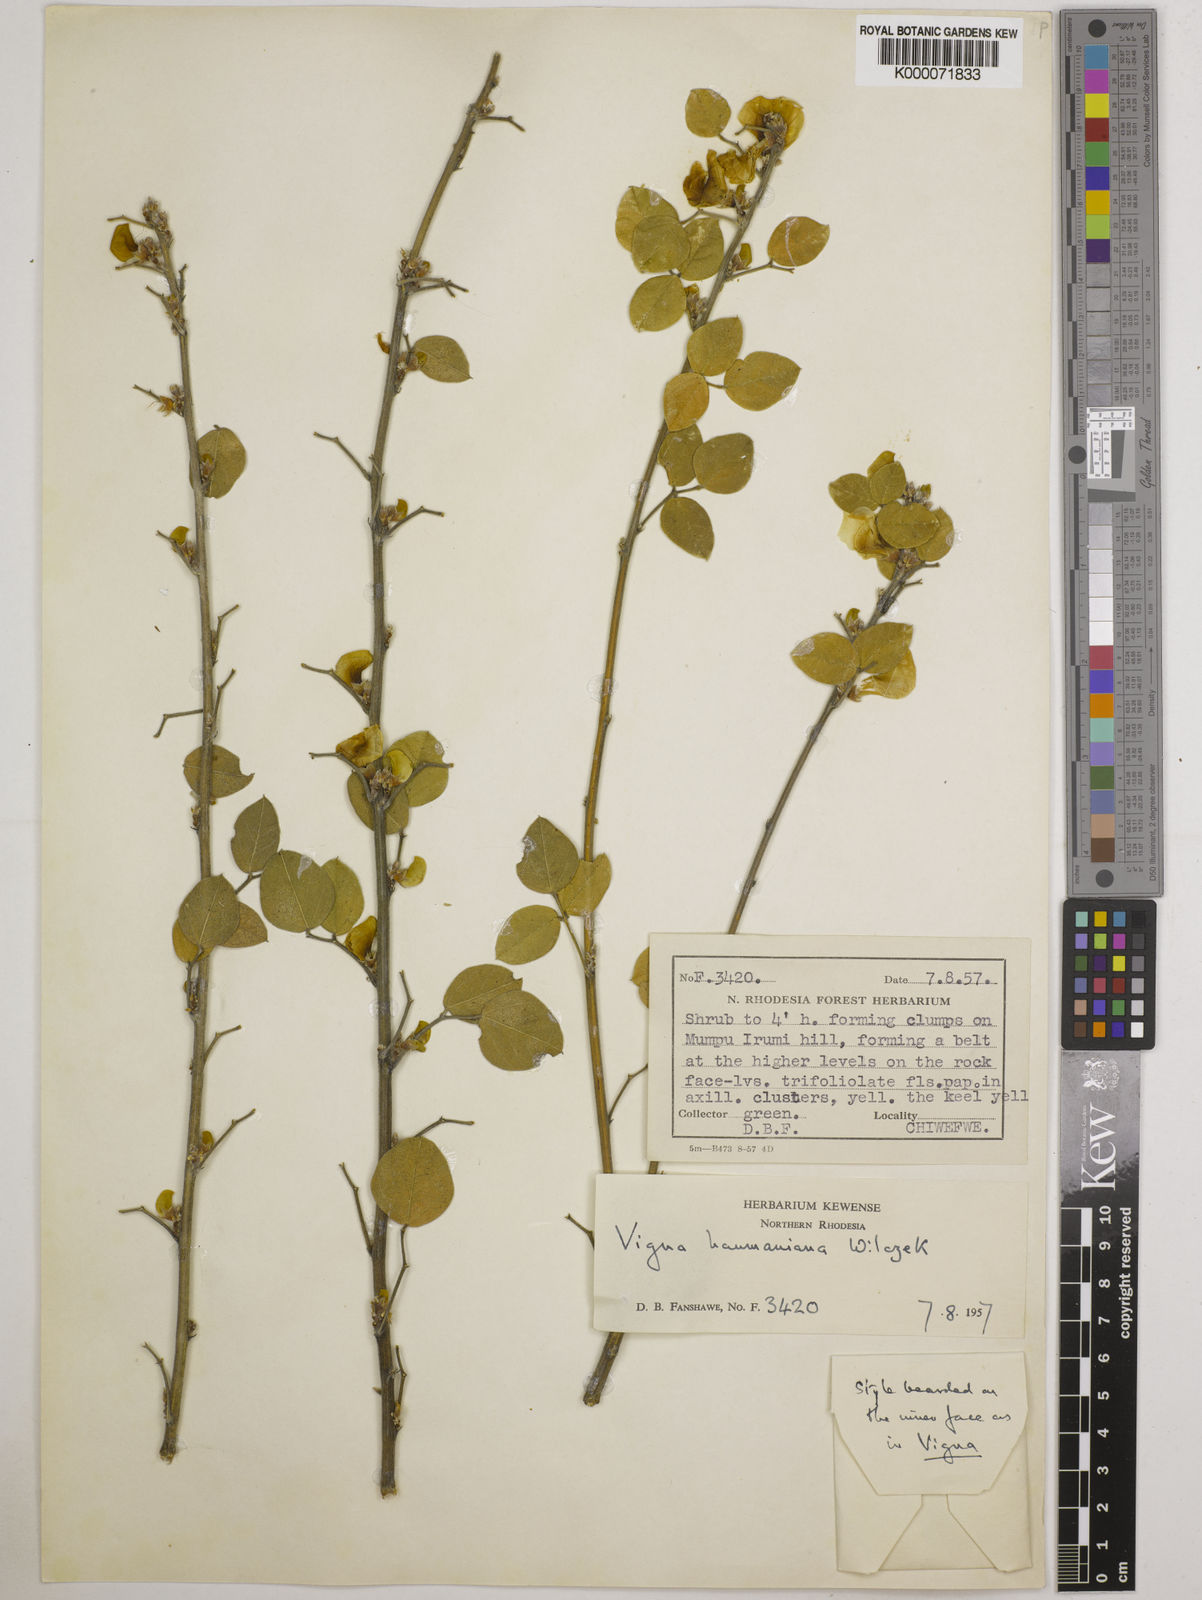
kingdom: Plantae
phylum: Tracheophyta
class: Magnoliopsida
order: Fabales
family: Fabaceae
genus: Vigna
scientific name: Vigna haumaniana
